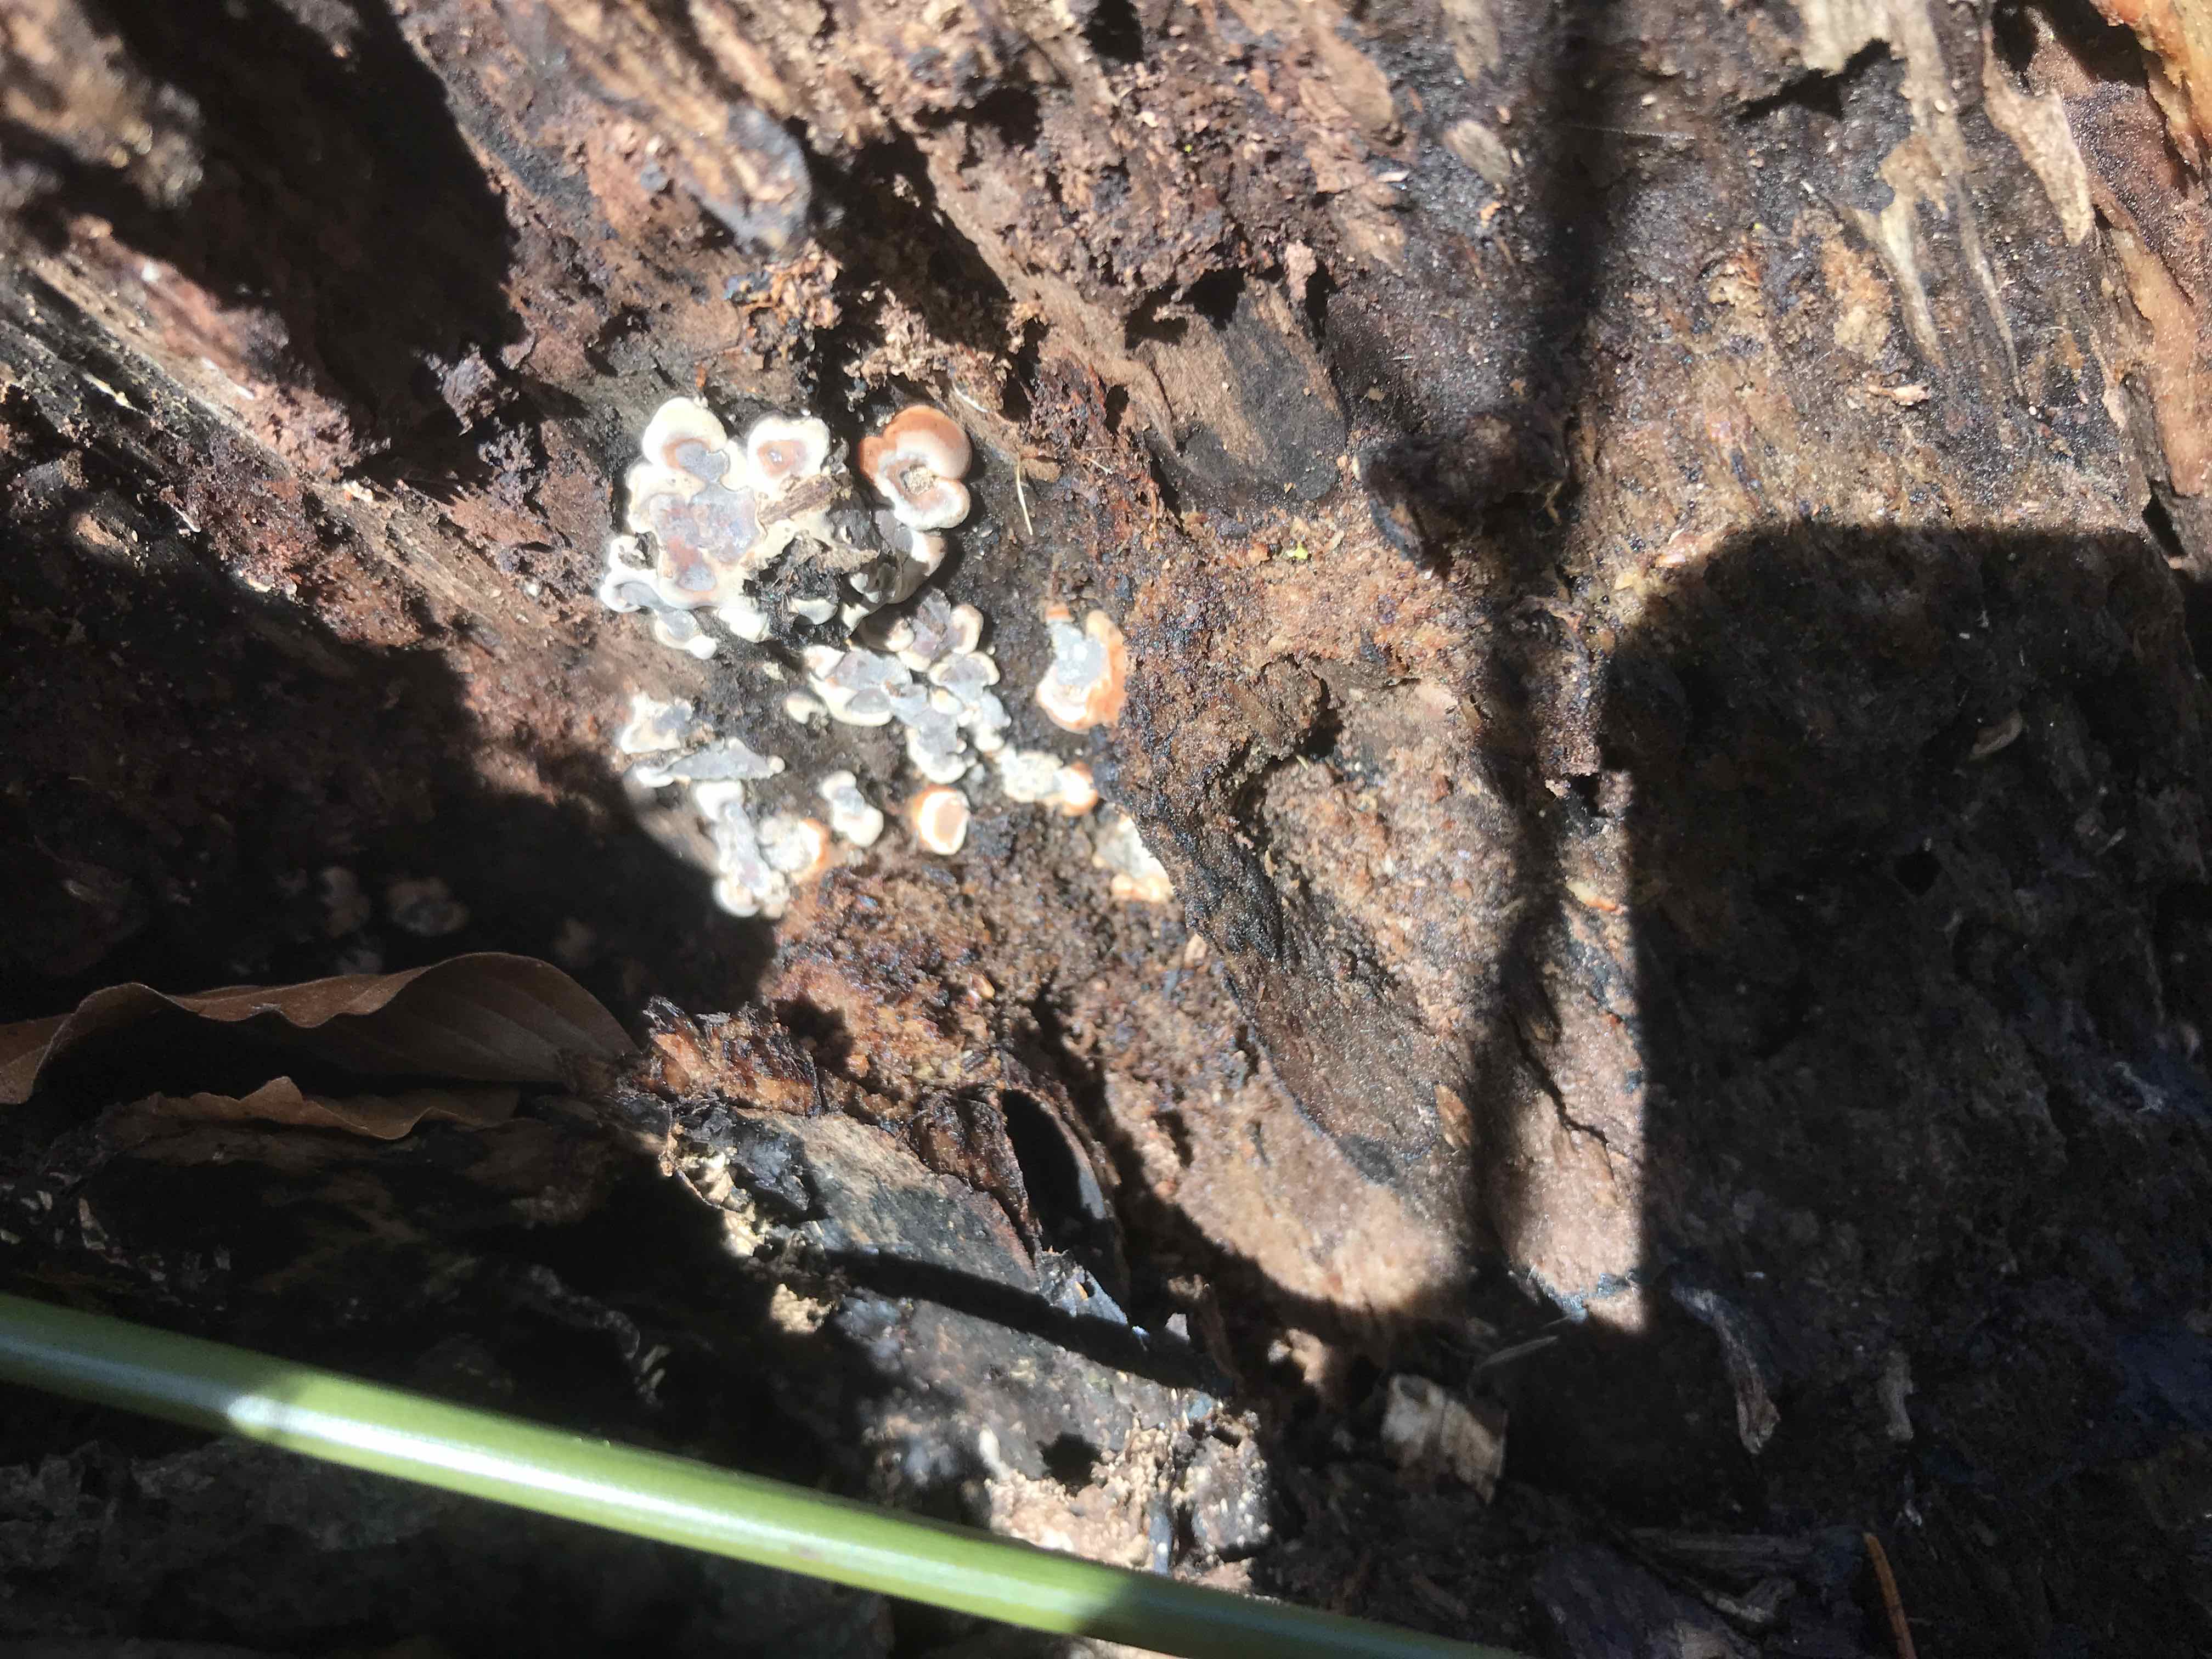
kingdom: Fungi
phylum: Ascomycota
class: Sordariomycetes
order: Xylariales
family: Xylariaceae
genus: Kretzschmaria
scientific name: Kretzschmaria deusta
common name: stor kulsvamp
